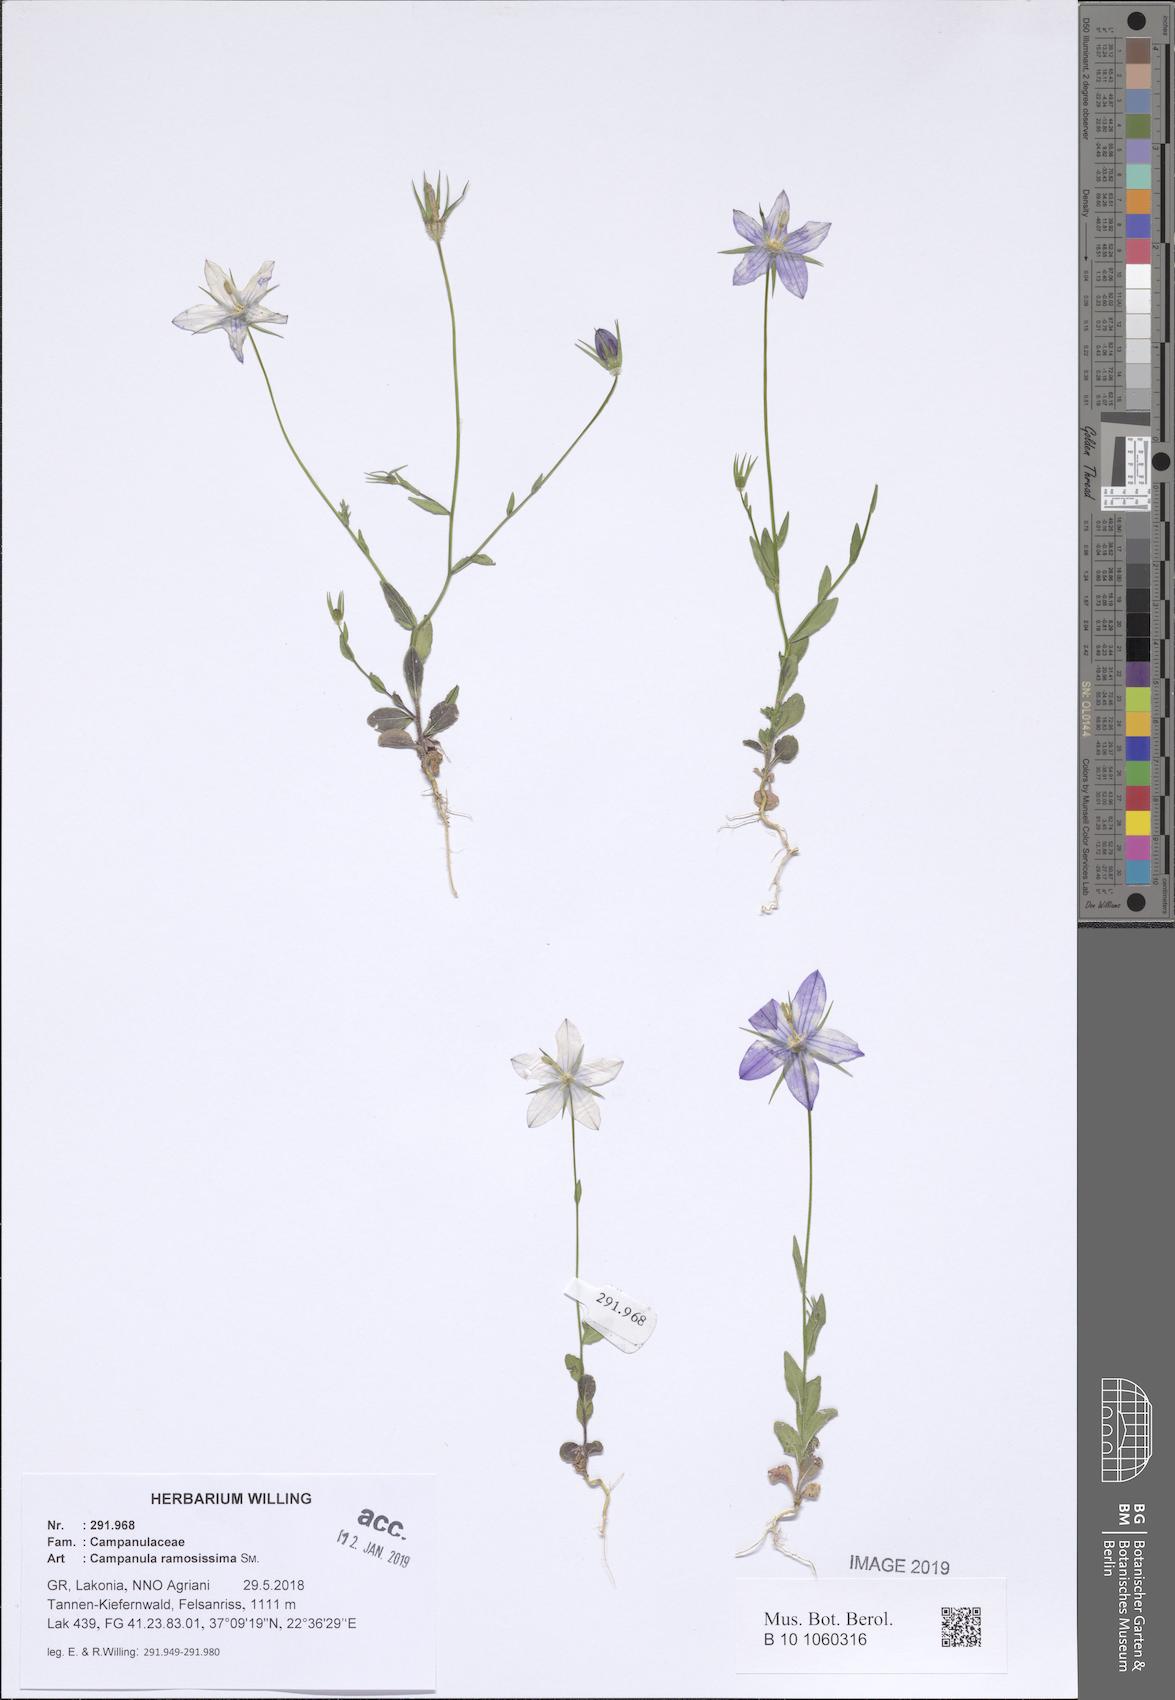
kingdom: Plantae
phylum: Tracheophyta
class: Magnoliopsida
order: Asterales
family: Campanulaceae
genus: Campanula
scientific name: Campanula ramosissima
